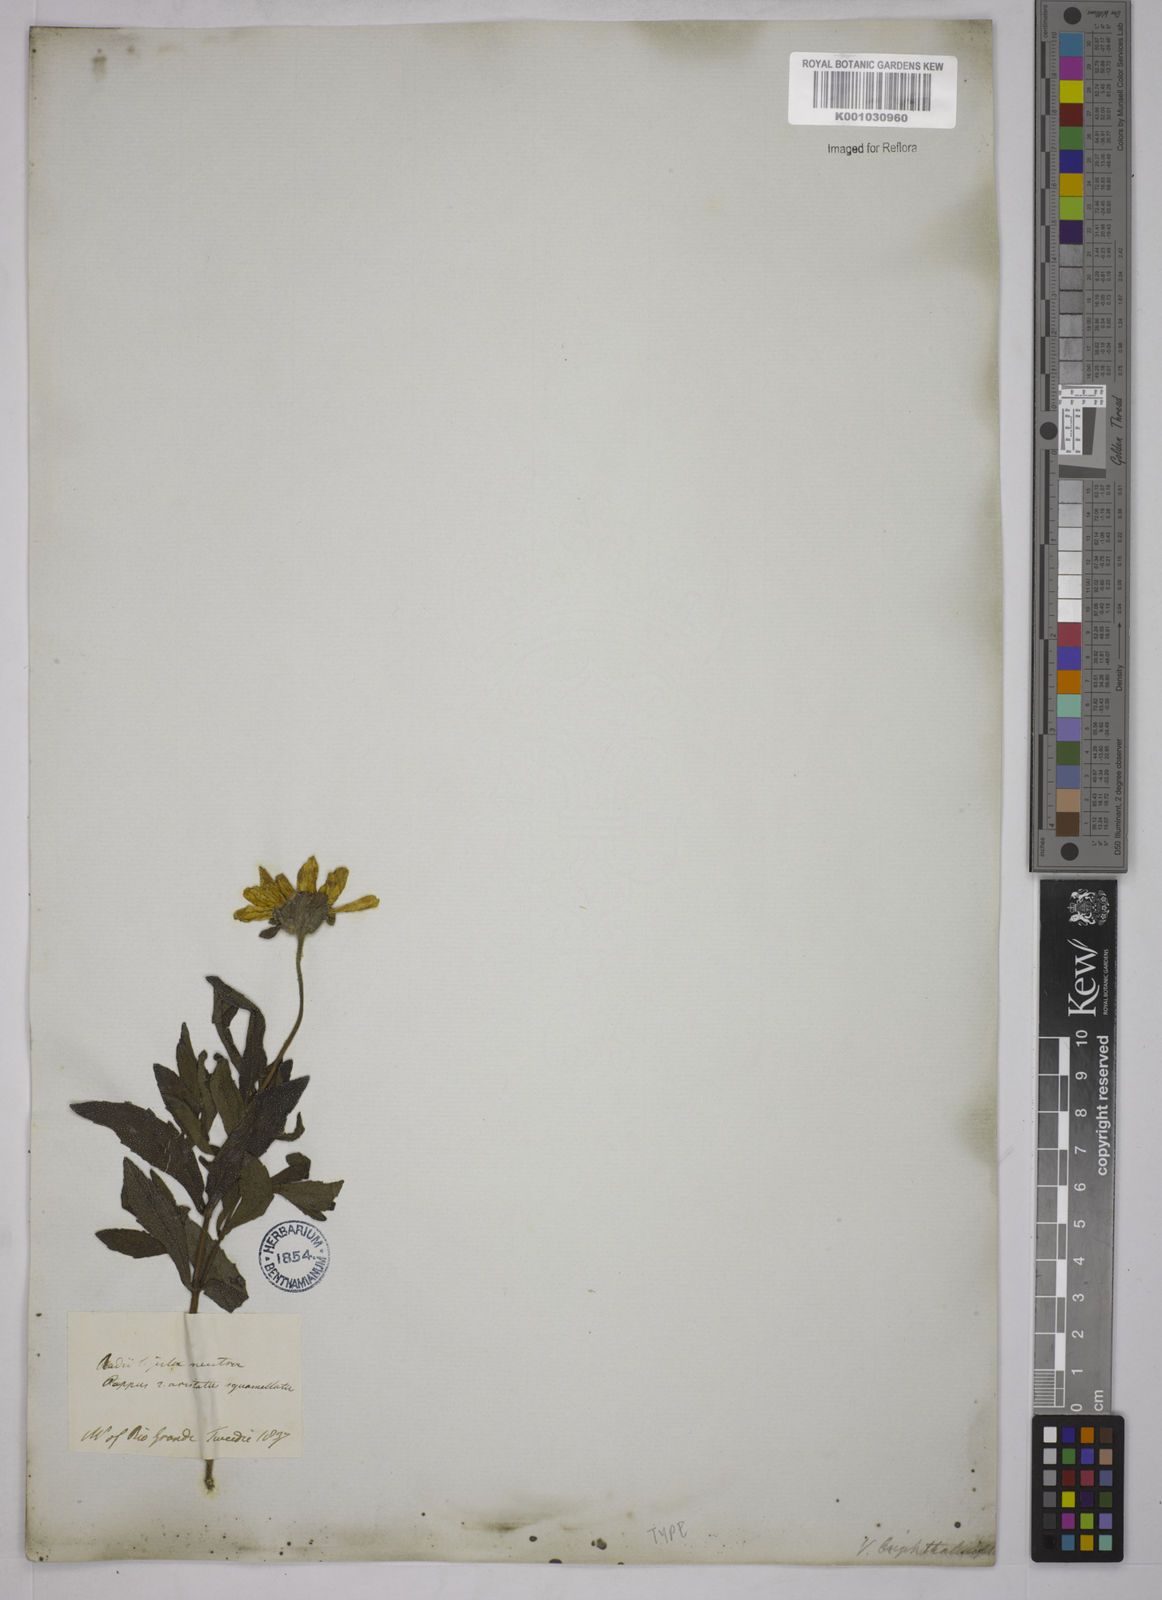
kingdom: Plantae
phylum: Tracheophyta
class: Magnoliopsida
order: Asterales
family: Asteraceae
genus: Aspilia
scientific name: Aspilia
